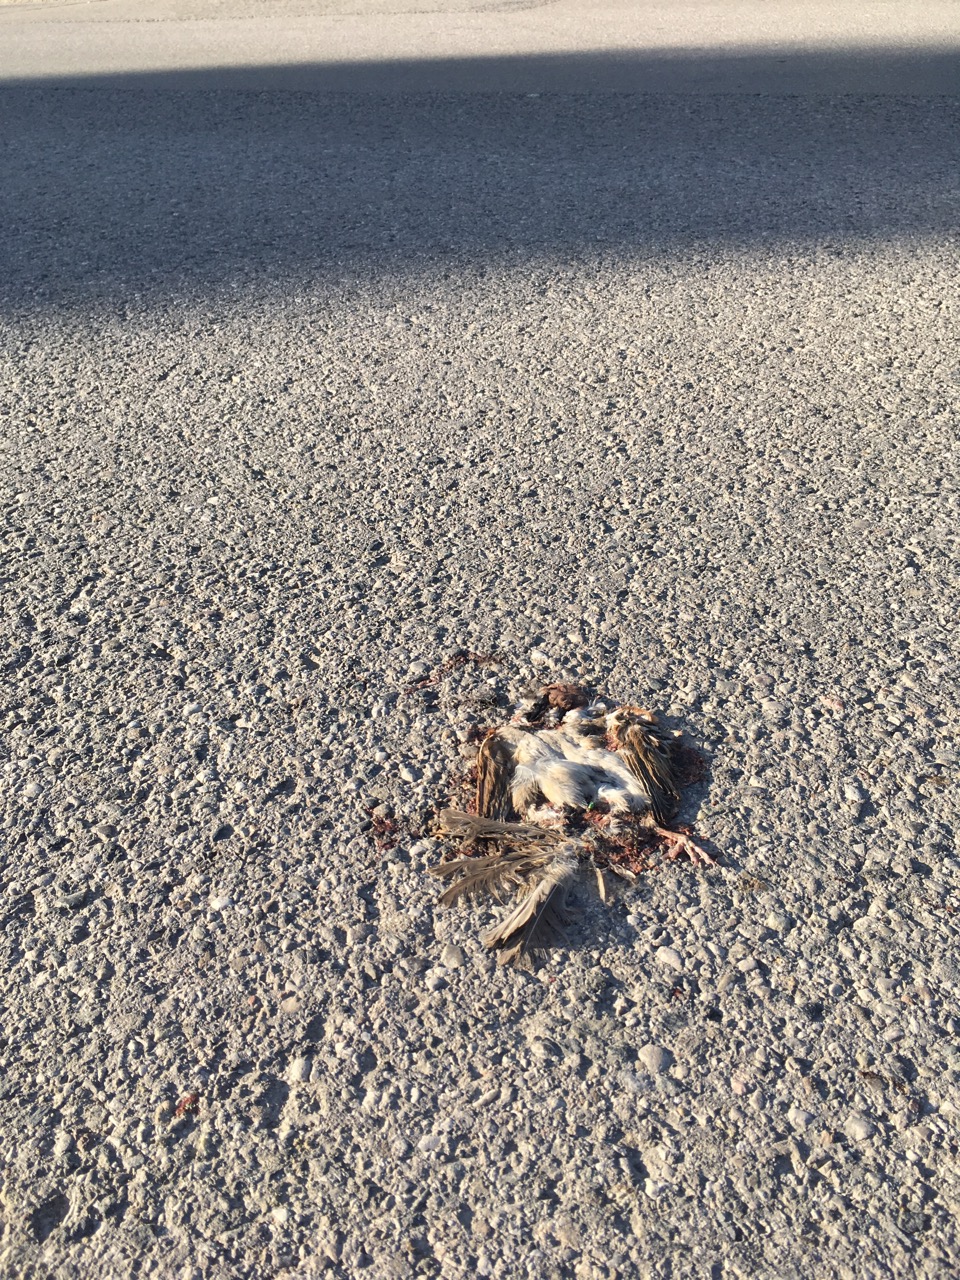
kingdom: Animalia
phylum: Chordata
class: Aves
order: Passeriformes
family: Passeridae
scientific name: Passeridae
